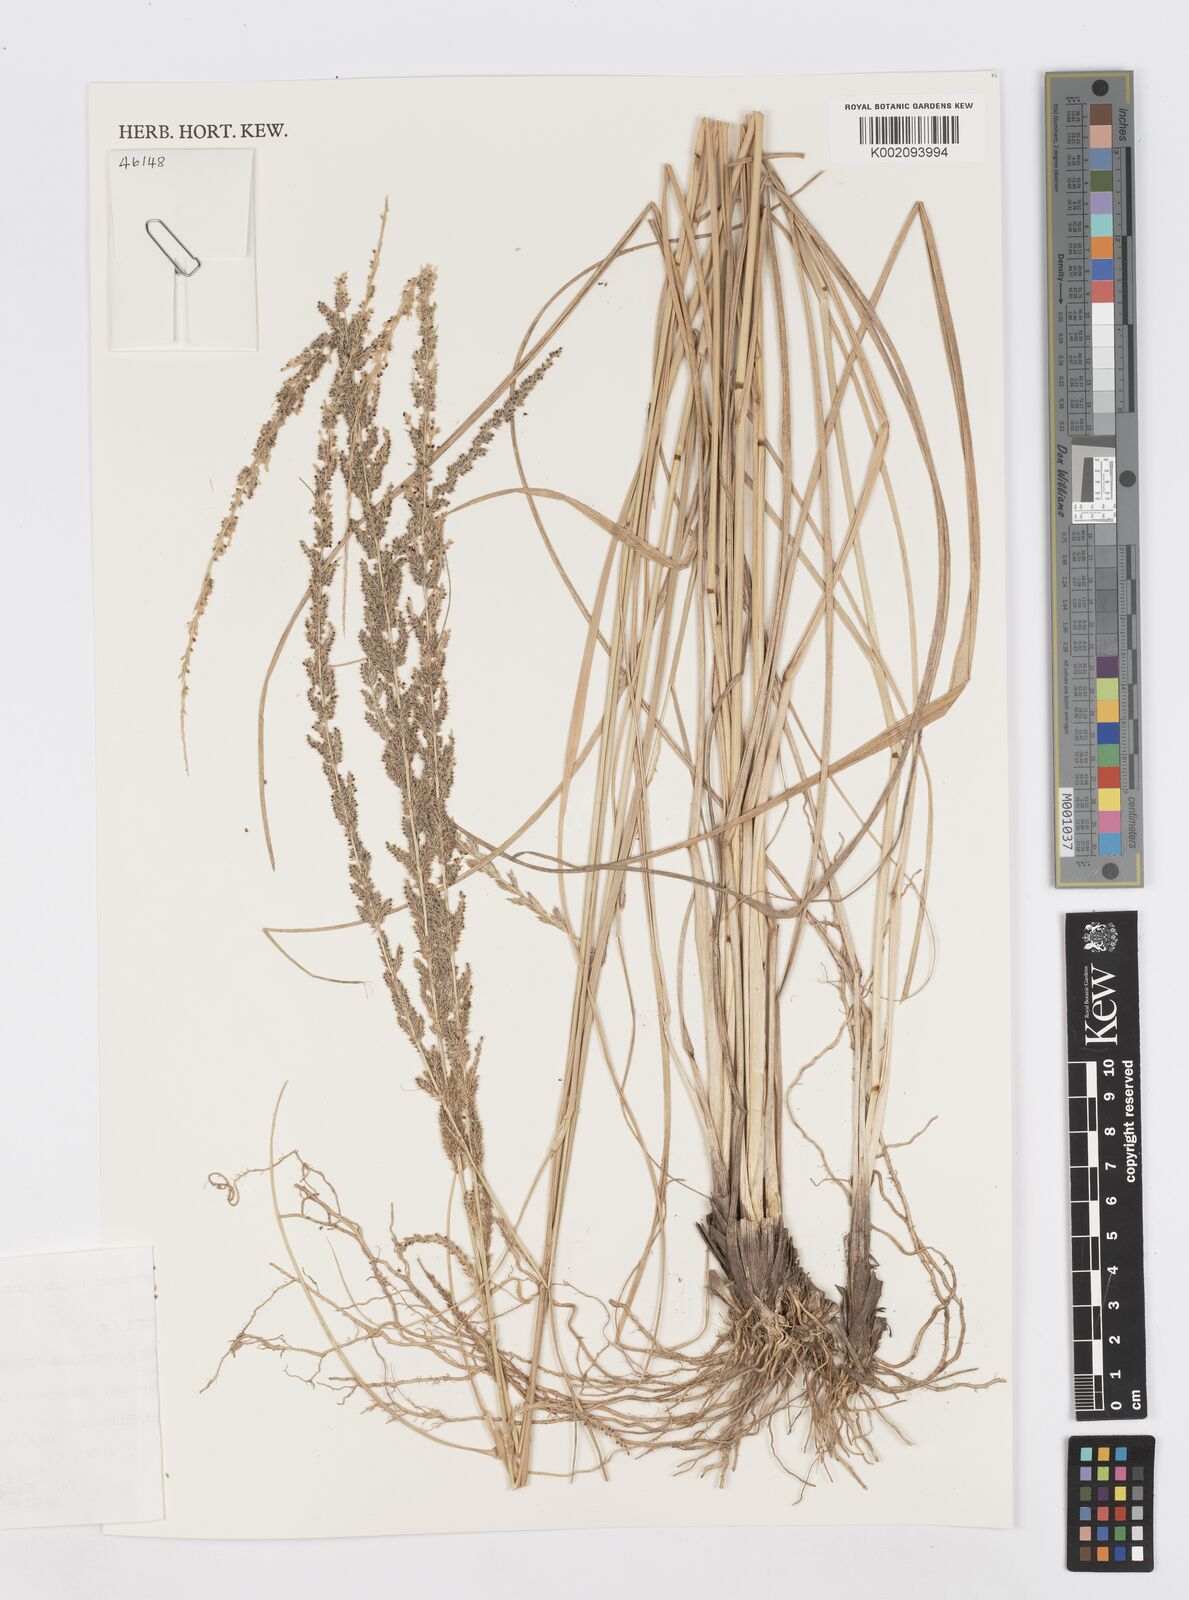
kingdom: Plantae
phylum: Tracheophyta
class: Liliopsida
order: Poales
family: Poaceae
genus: Sporobolus
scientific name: Sporobolus fertilis
